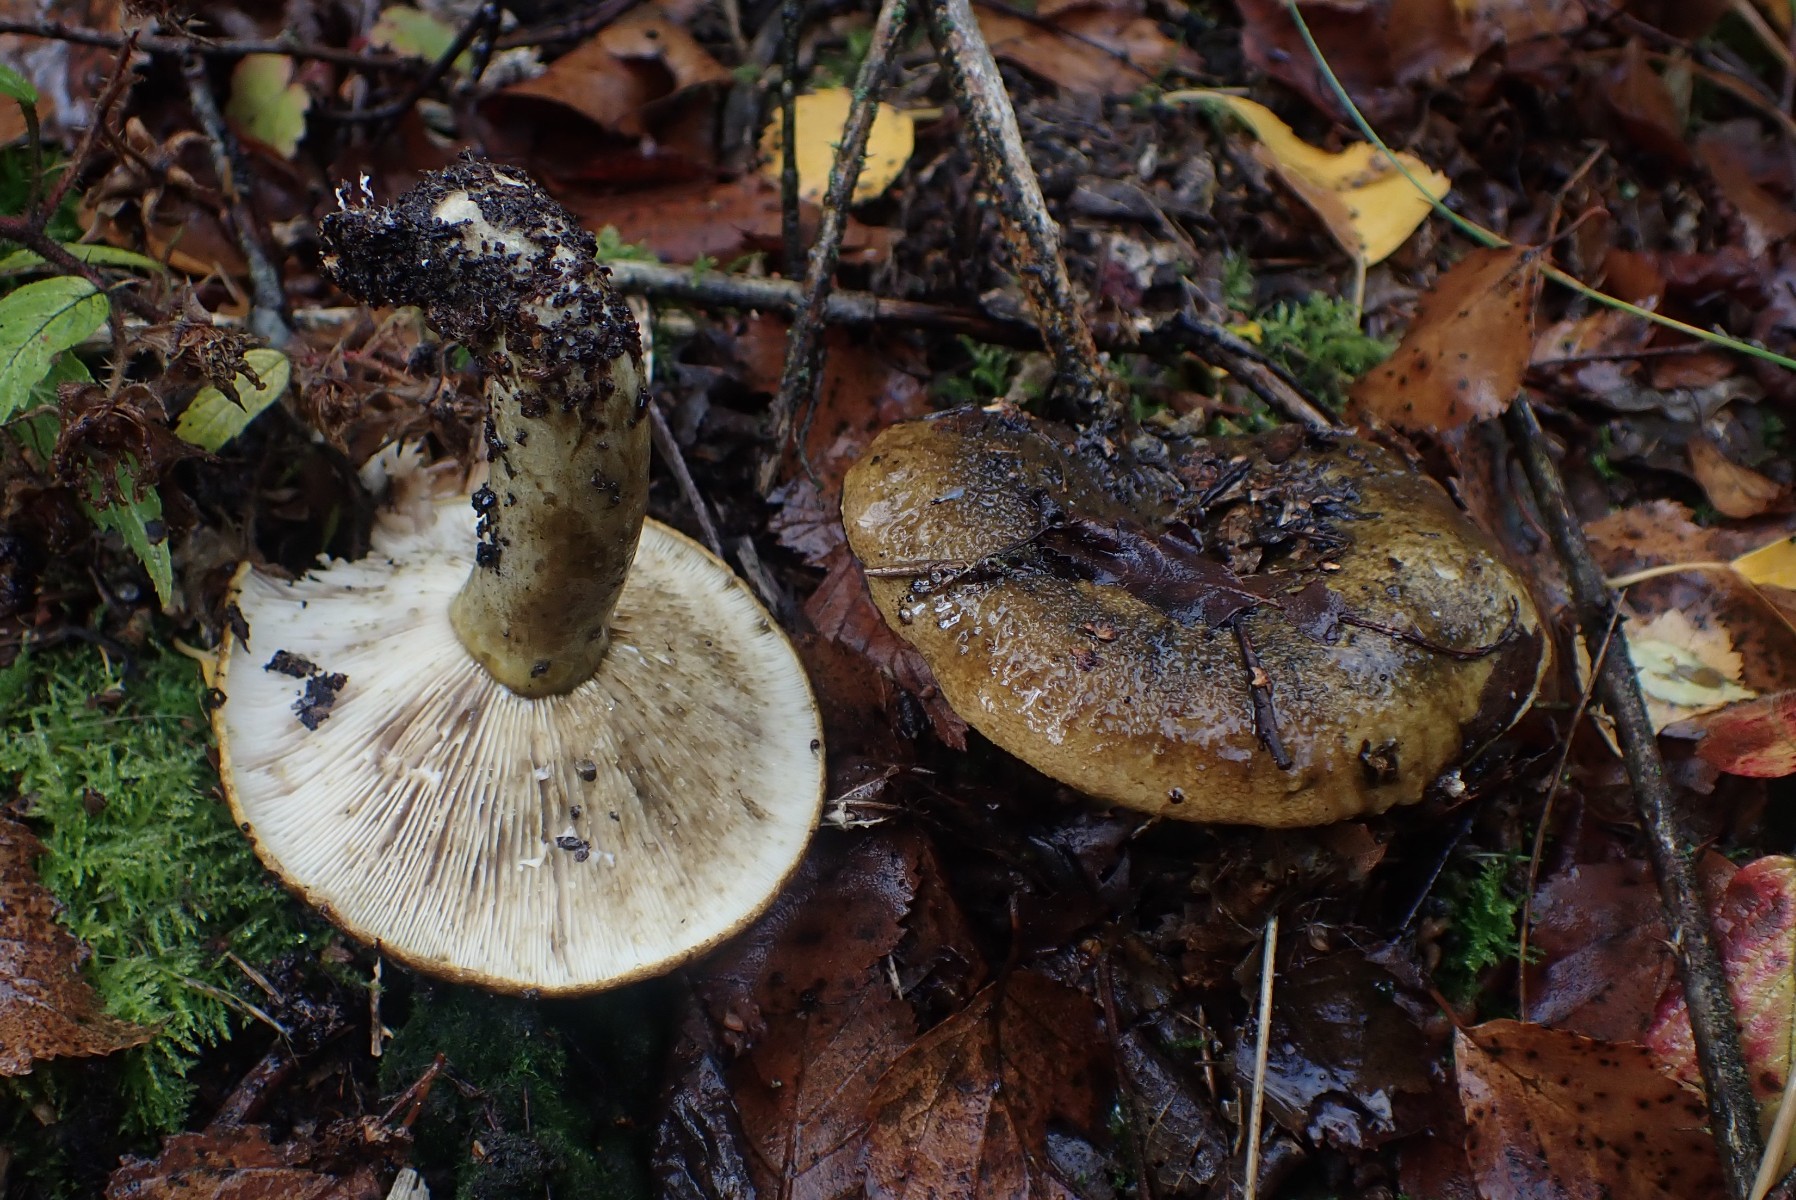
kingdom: Fungi
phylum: Basidiomycota
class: Agaricomycetes
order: Russulales
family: Russulaceae
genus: Lactarius
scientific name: Lactarius necator
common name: manddraber-mælkehat
